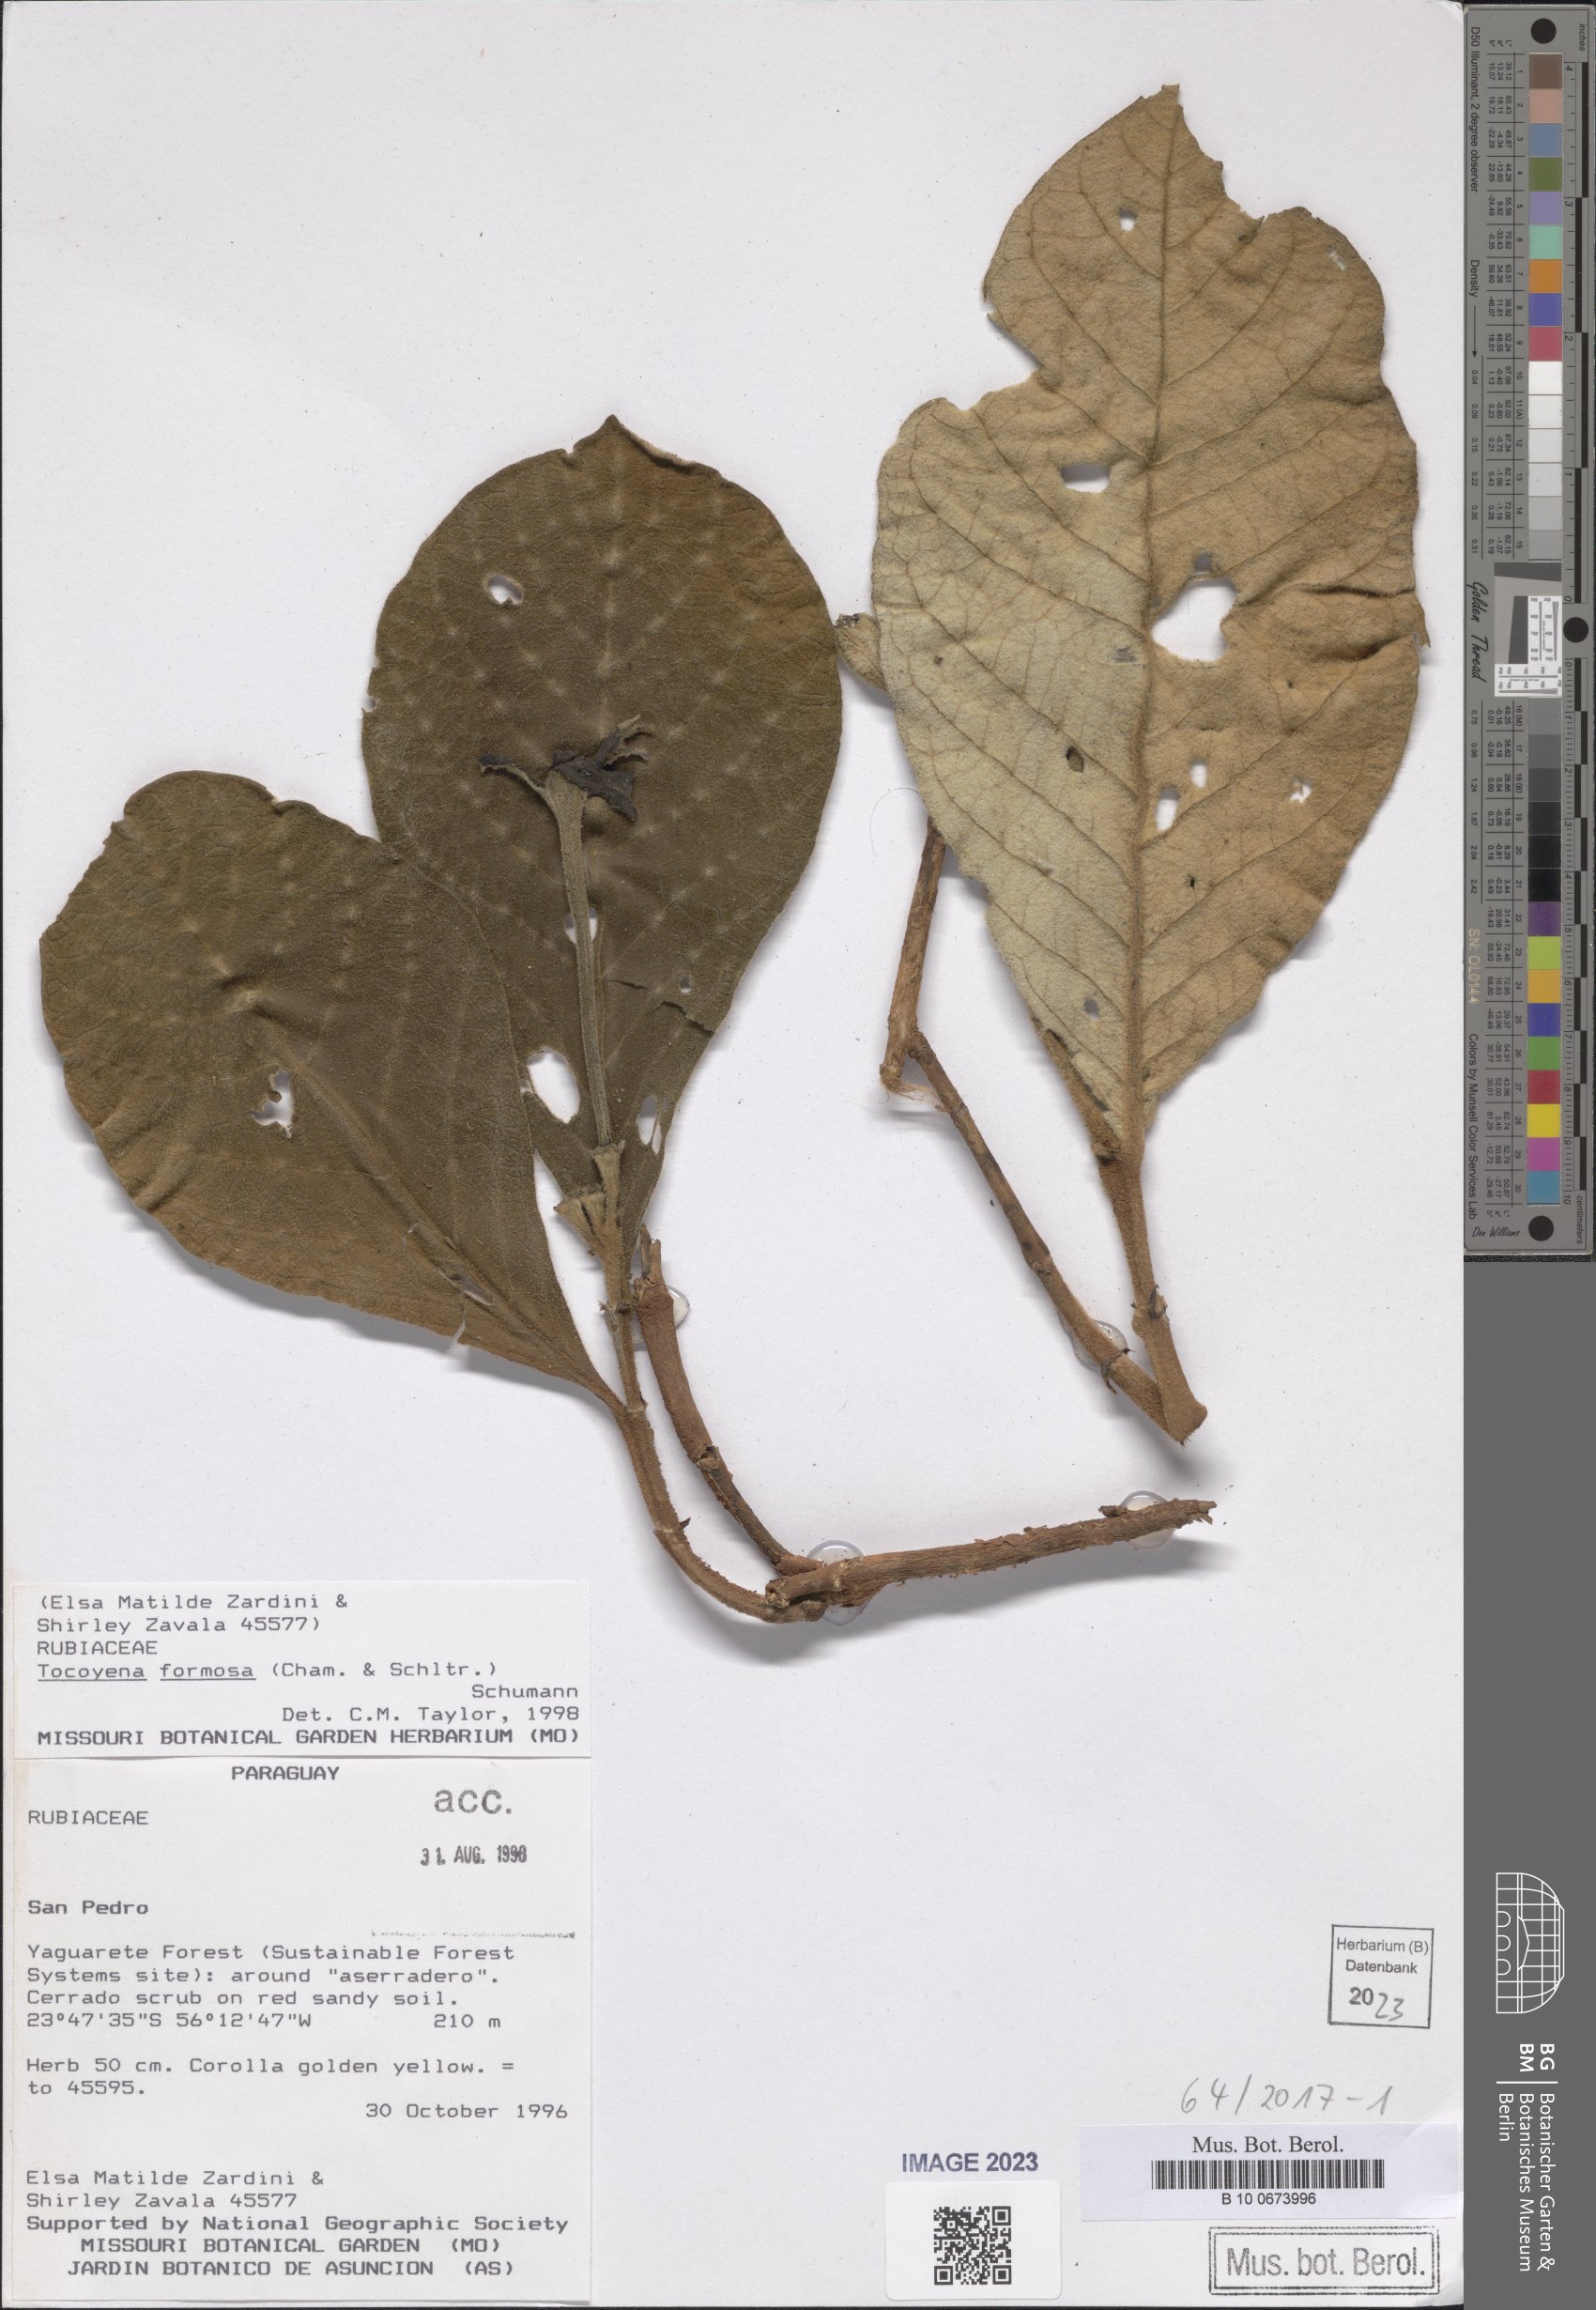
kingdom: Plantae
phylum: Tracheophyta
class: Magnoliopsida
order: Gentianales
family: Rubiaceae
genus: Tocoyena
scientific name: Tocoyena formosa
